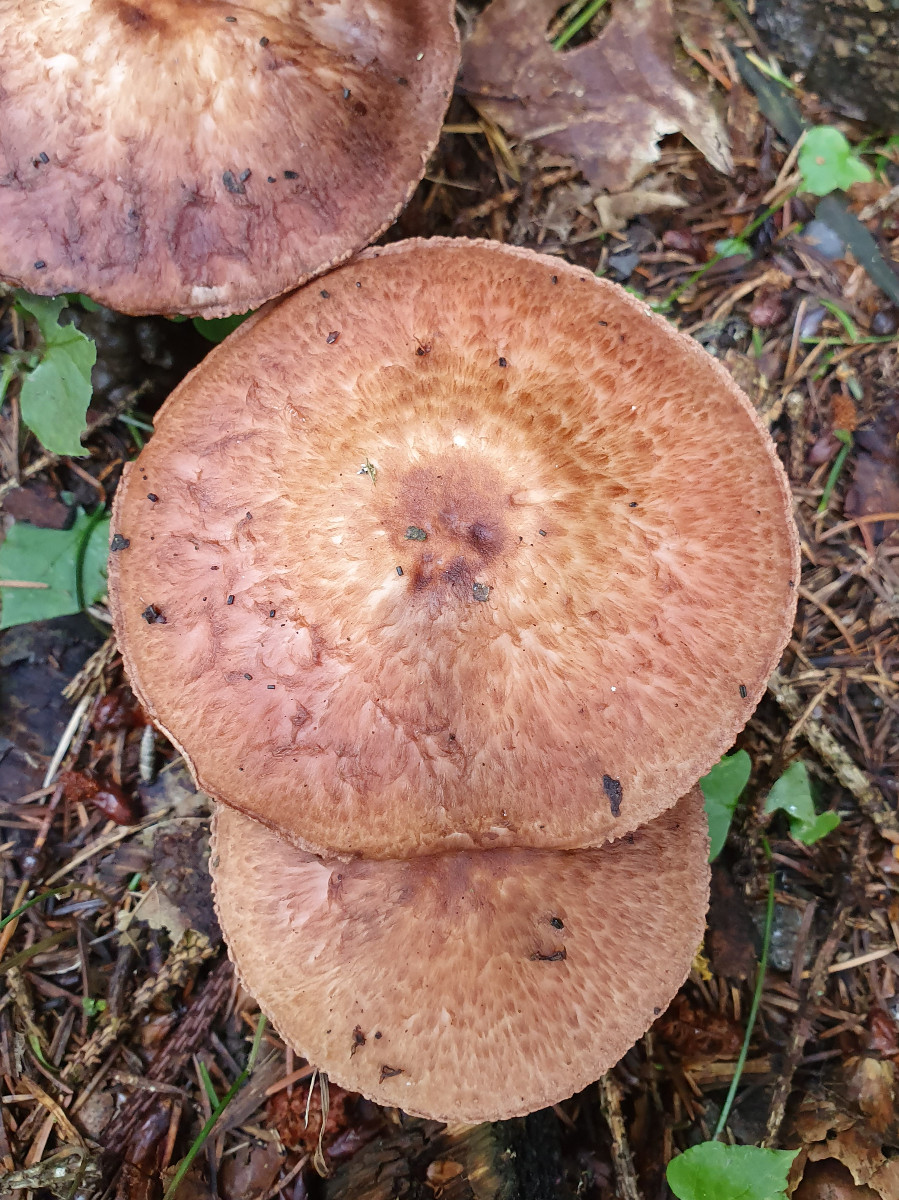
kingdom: Fungi
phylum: Basidiomycota
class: Agaricomycetes
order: Agaricales
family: Agaricaceae
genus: Agaricus
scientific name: Agaricus impudicus
